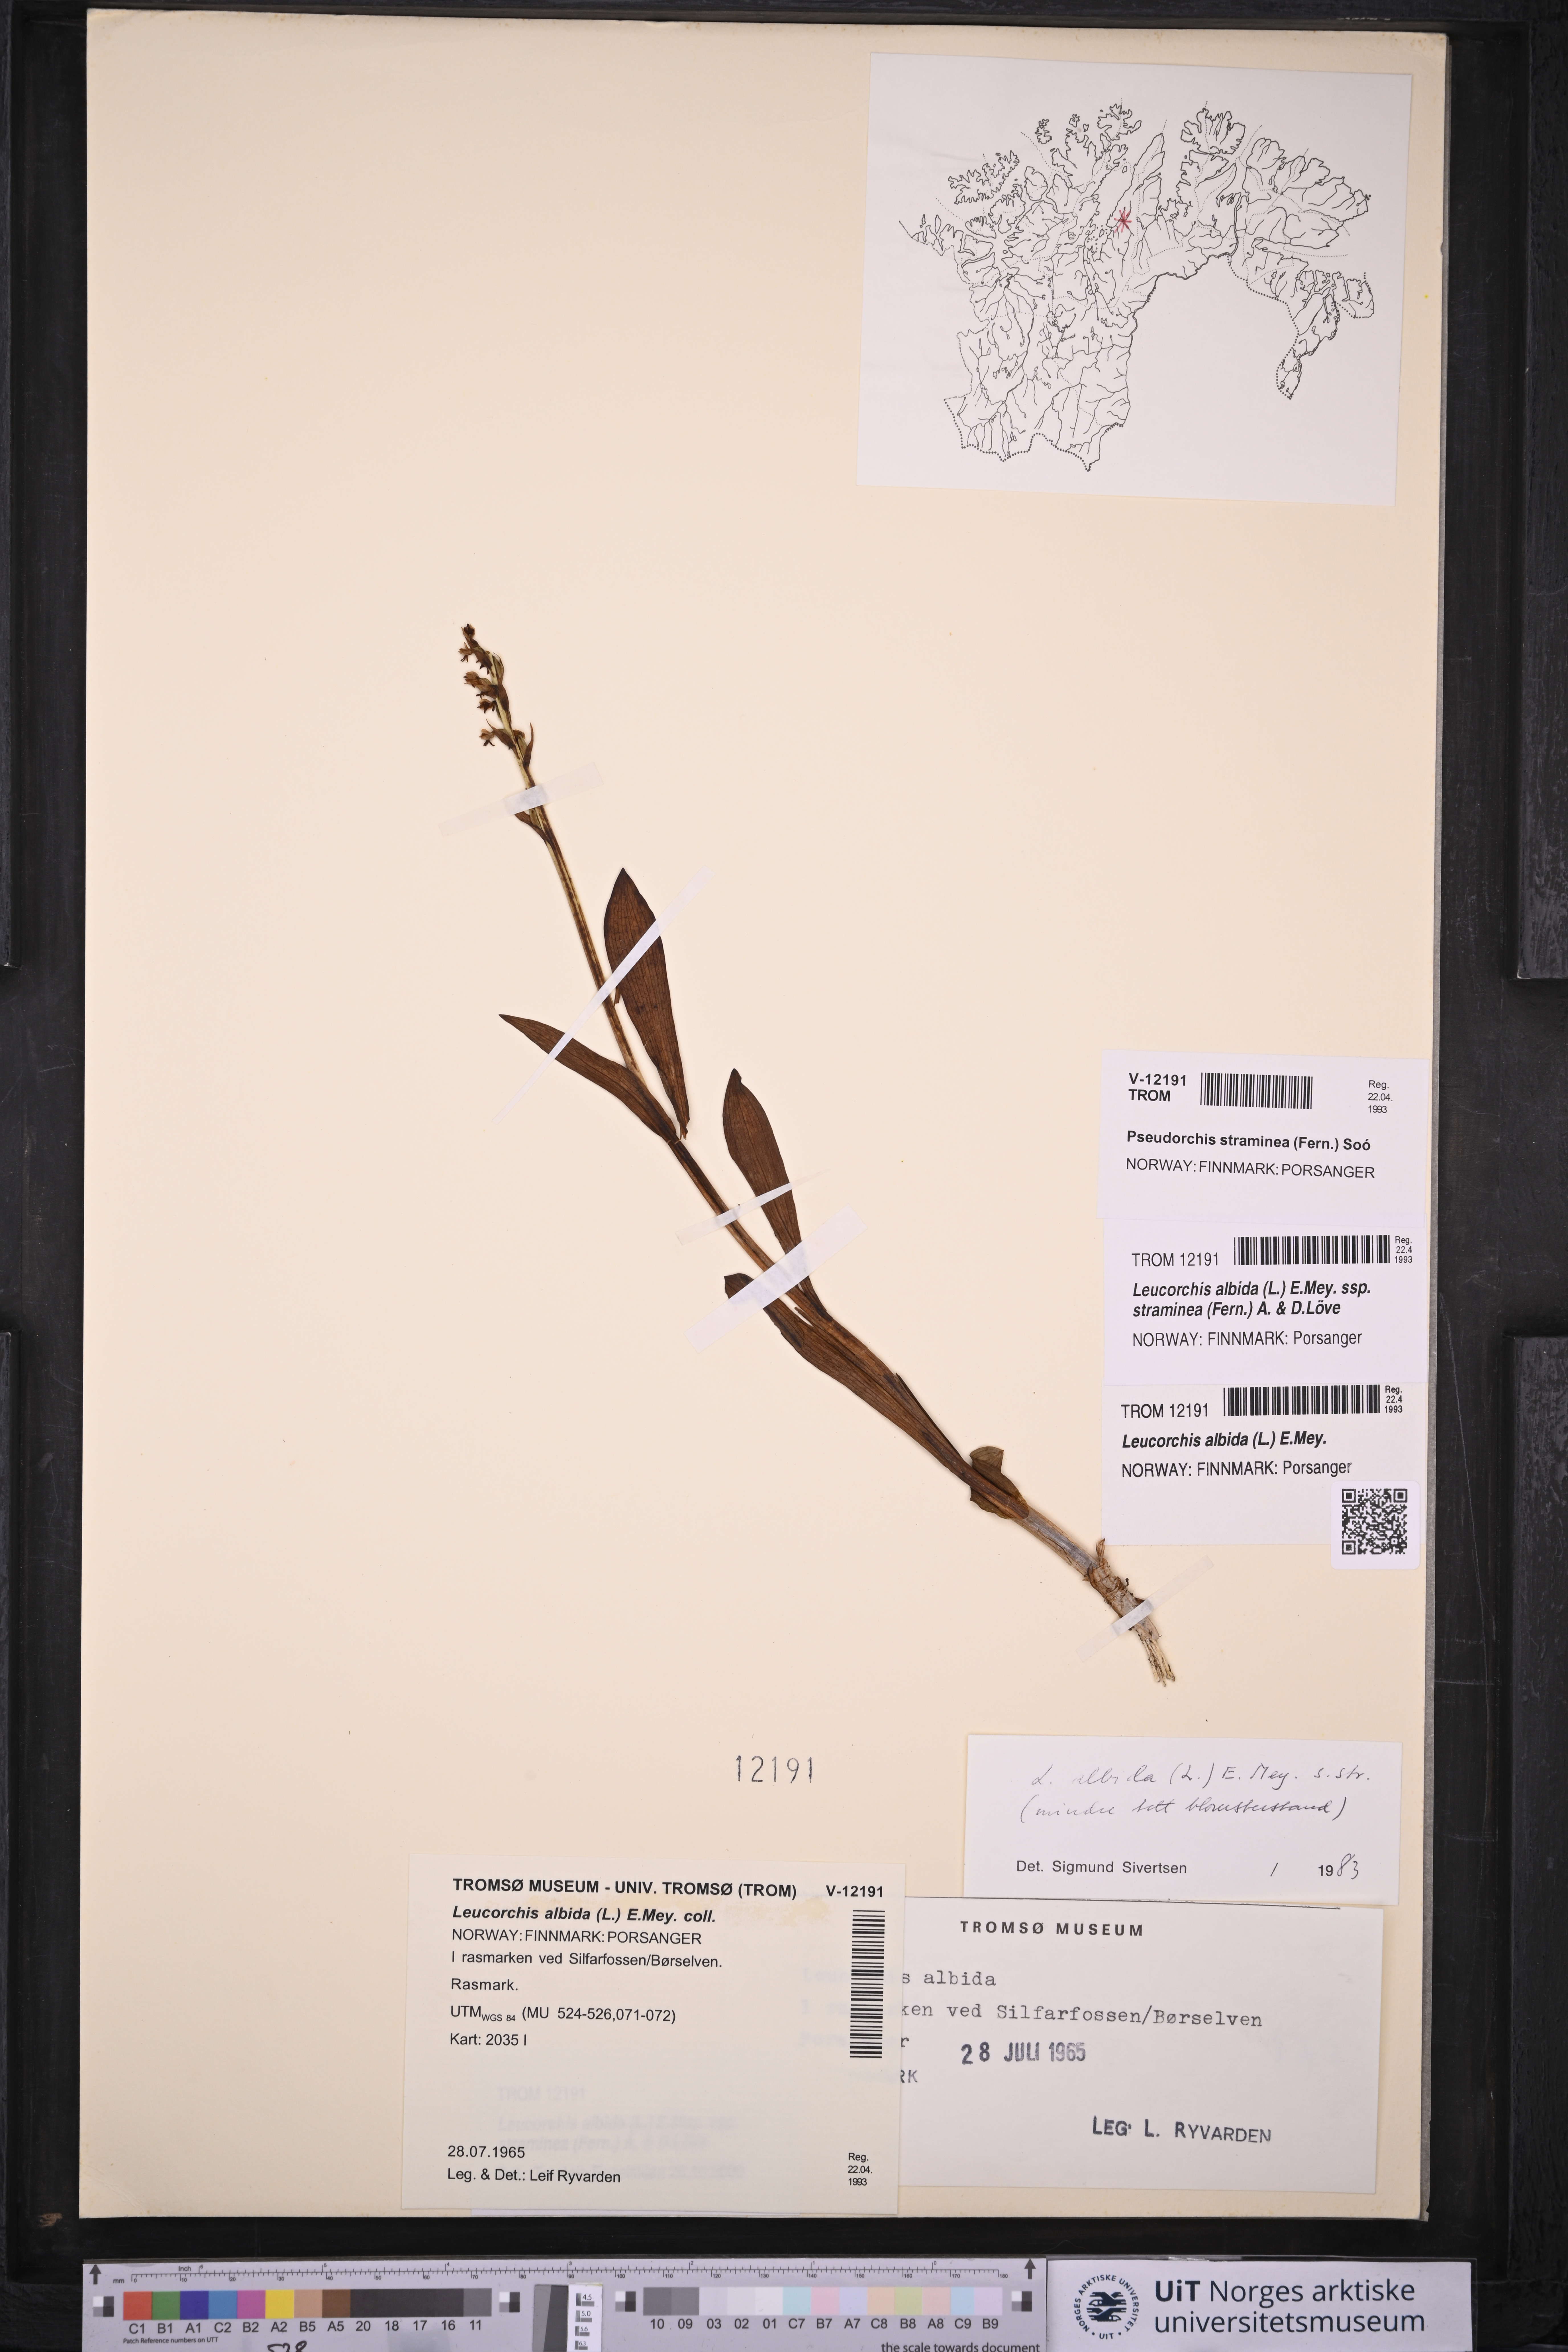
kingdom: Plantae
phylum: Tracheophyta
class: Liliopsida
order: Asparagales
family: Orchidaceae
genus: Pseudorchis
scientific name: Pseudorchis straminea
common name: Vanilla-scented bog orchid
